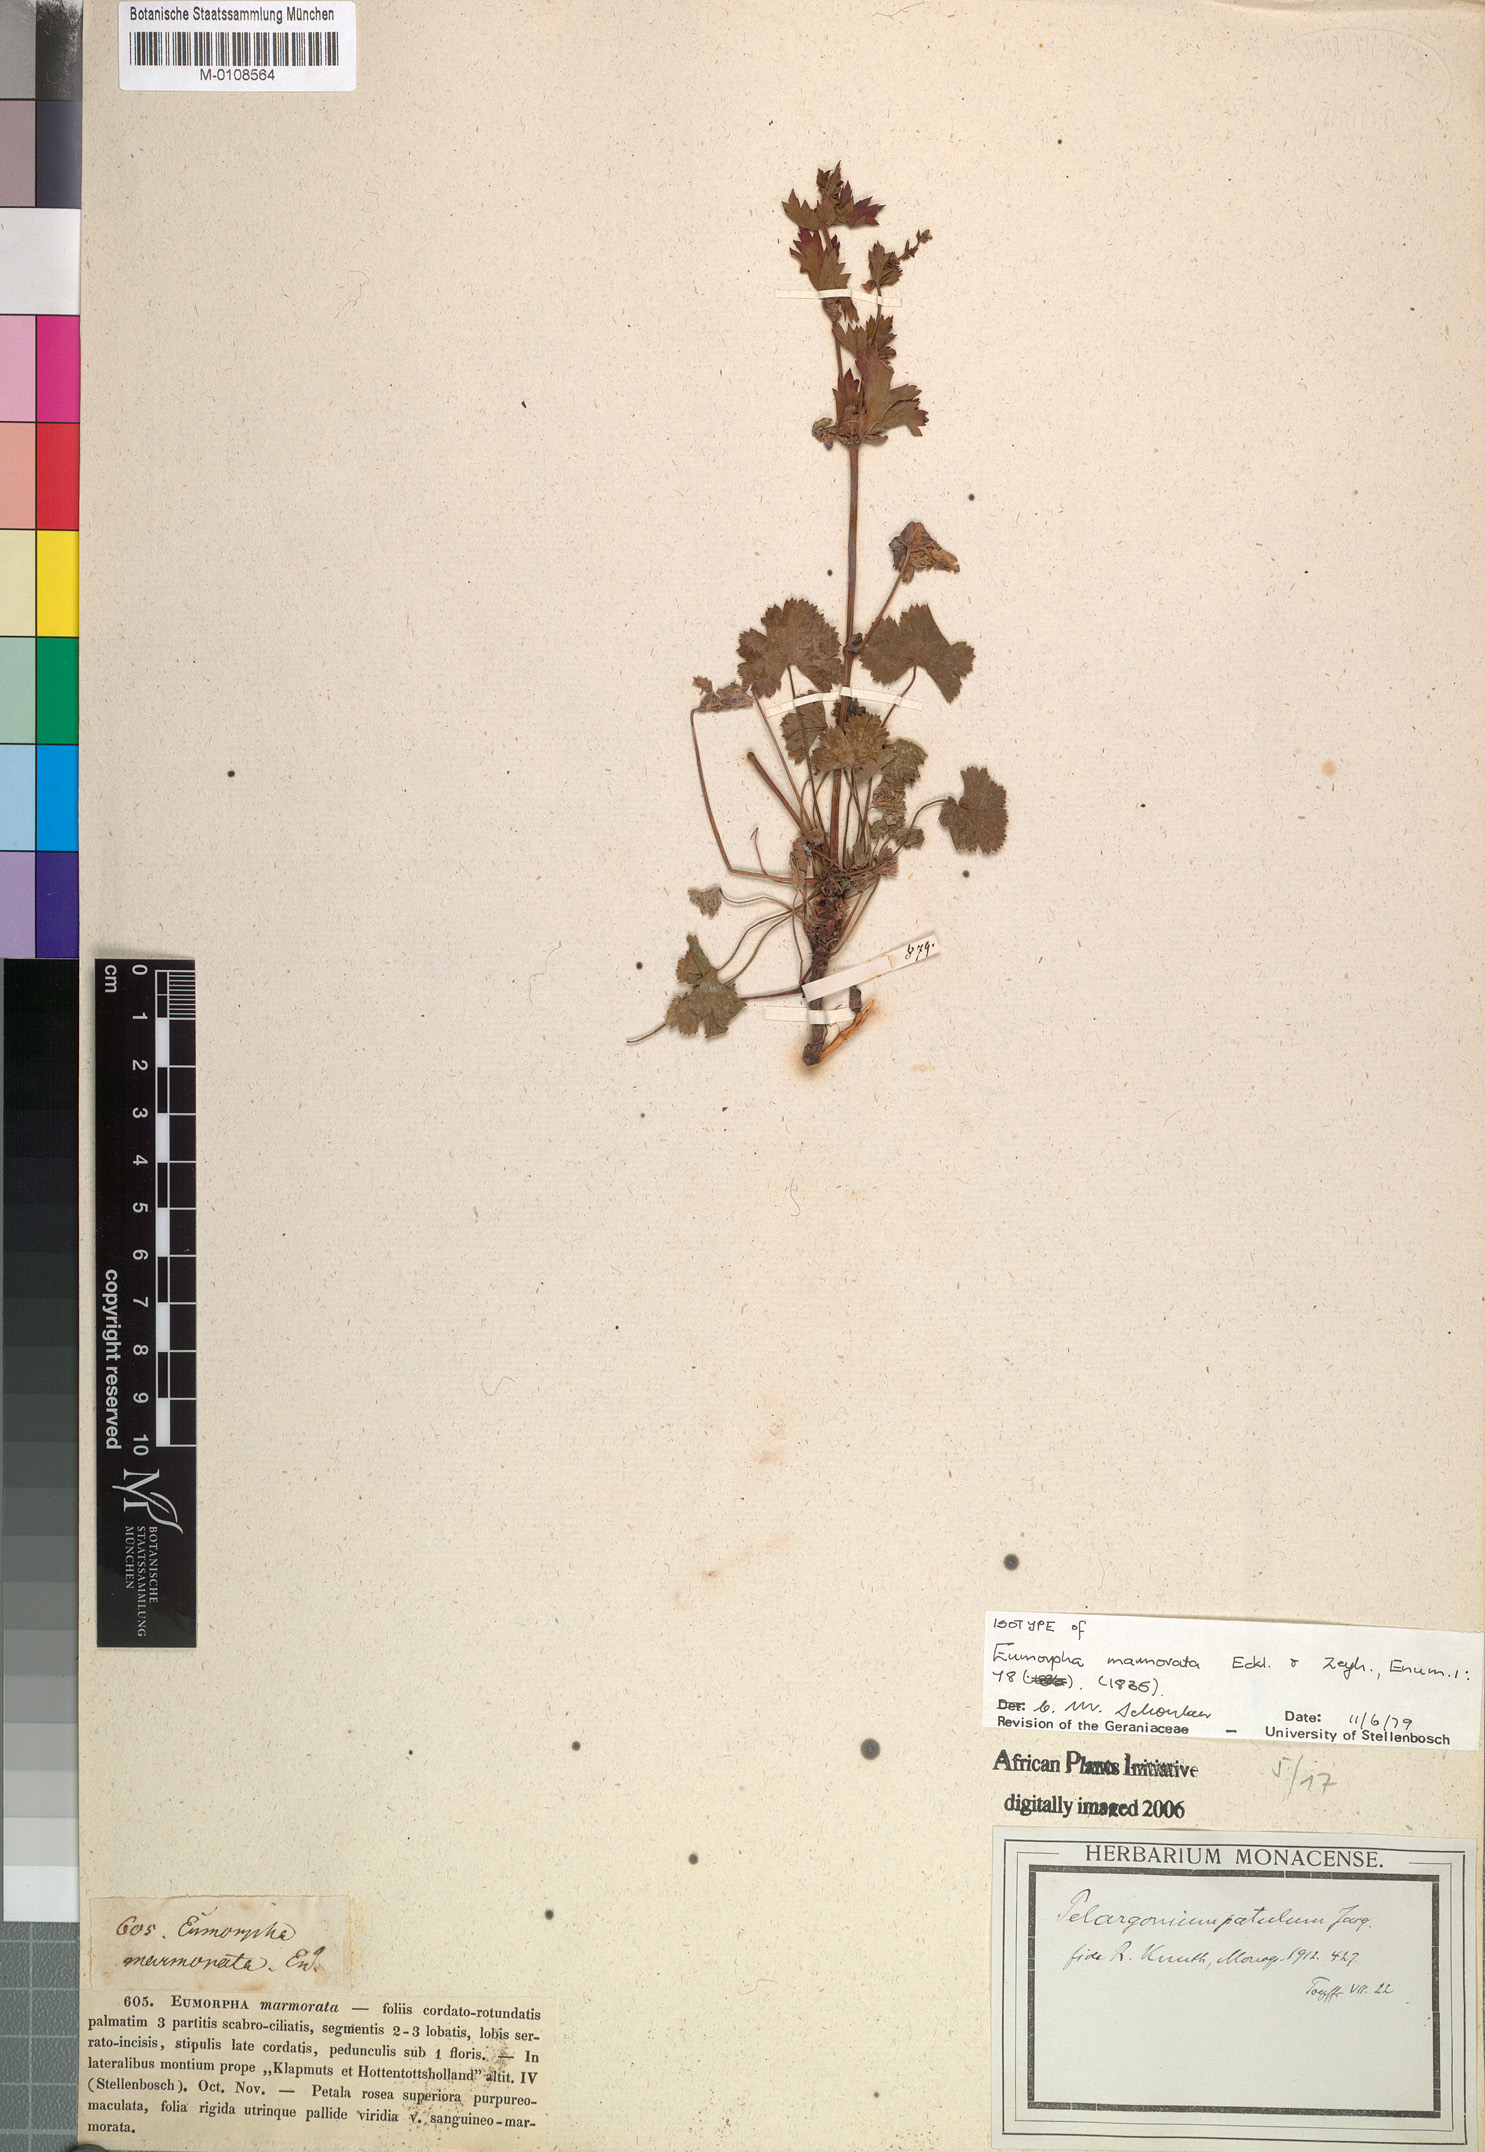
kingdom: Plantae
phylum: Tracheophyta
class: Magnoliopsida
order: Geraniales
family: Geraniaceae
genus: Pelargonium
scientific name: Pelargonium patulum
